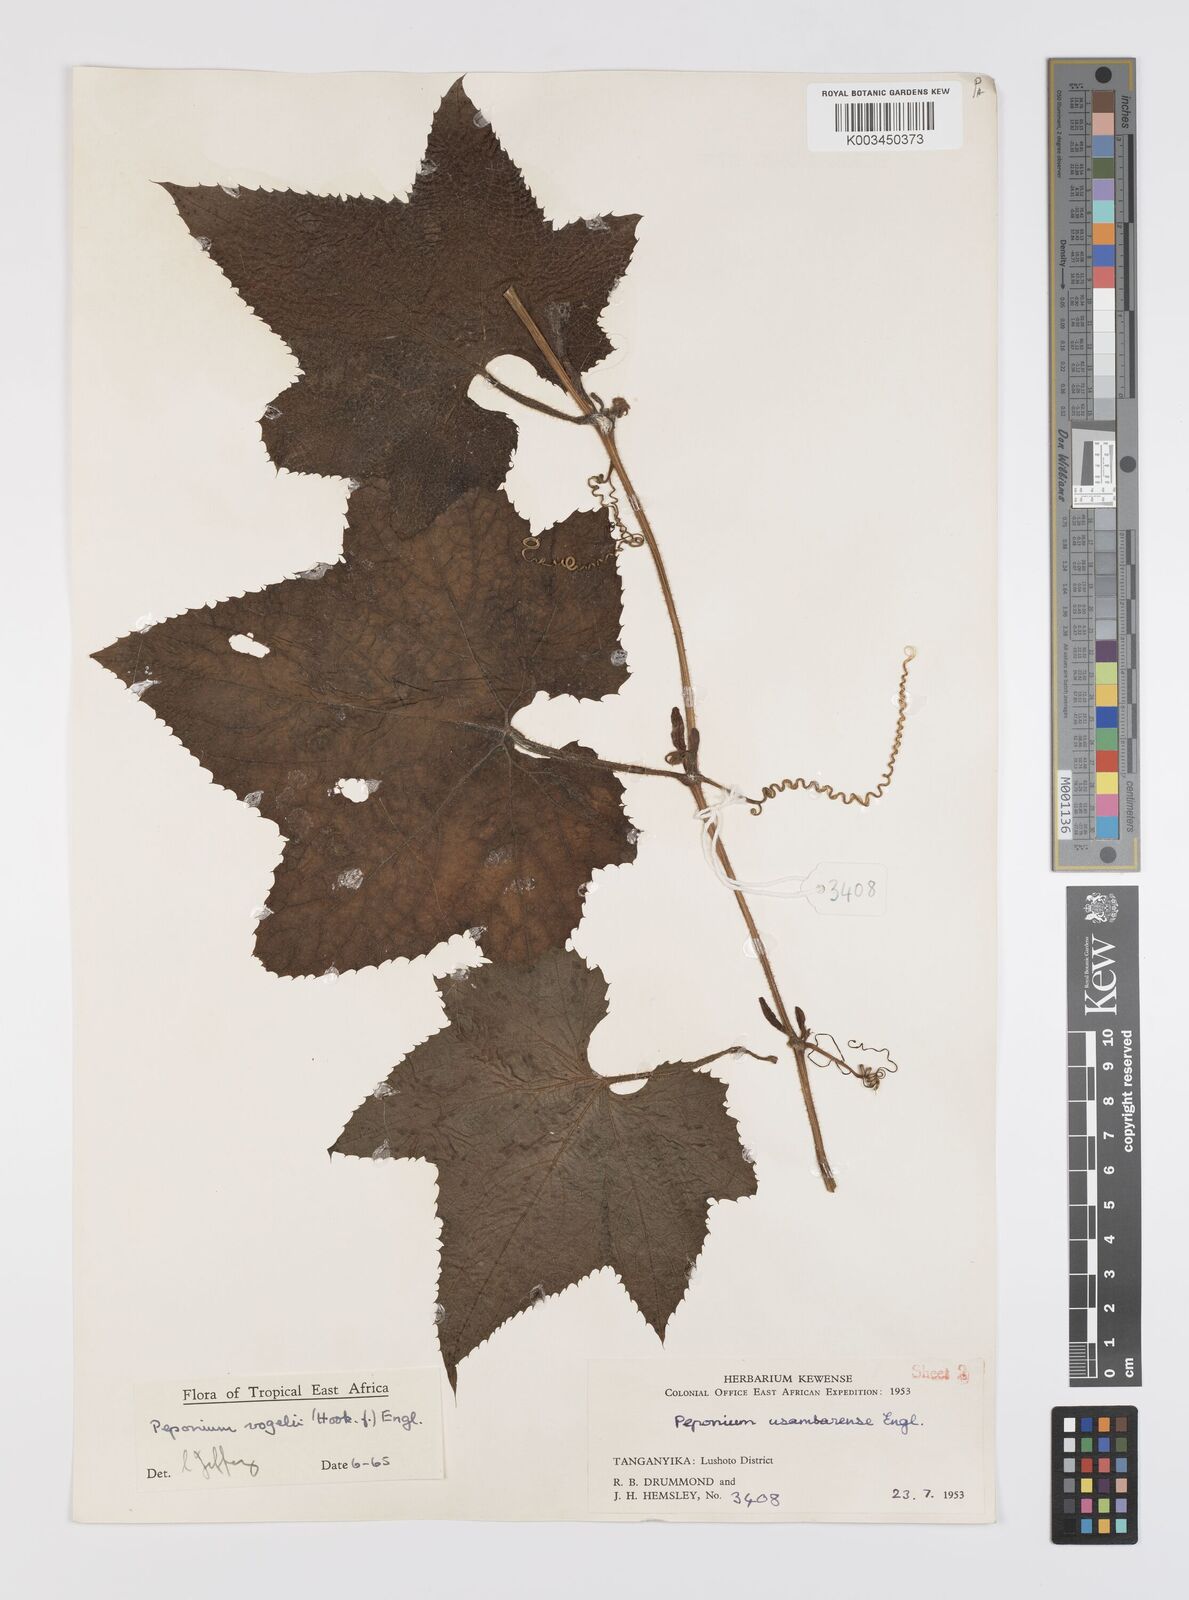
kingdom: Plantae
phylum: Tracheophyta
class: Magnoliopsida
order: Cucurbitales
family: Cucurbitaceae
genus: Peponium
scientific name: Peponium vogelii
